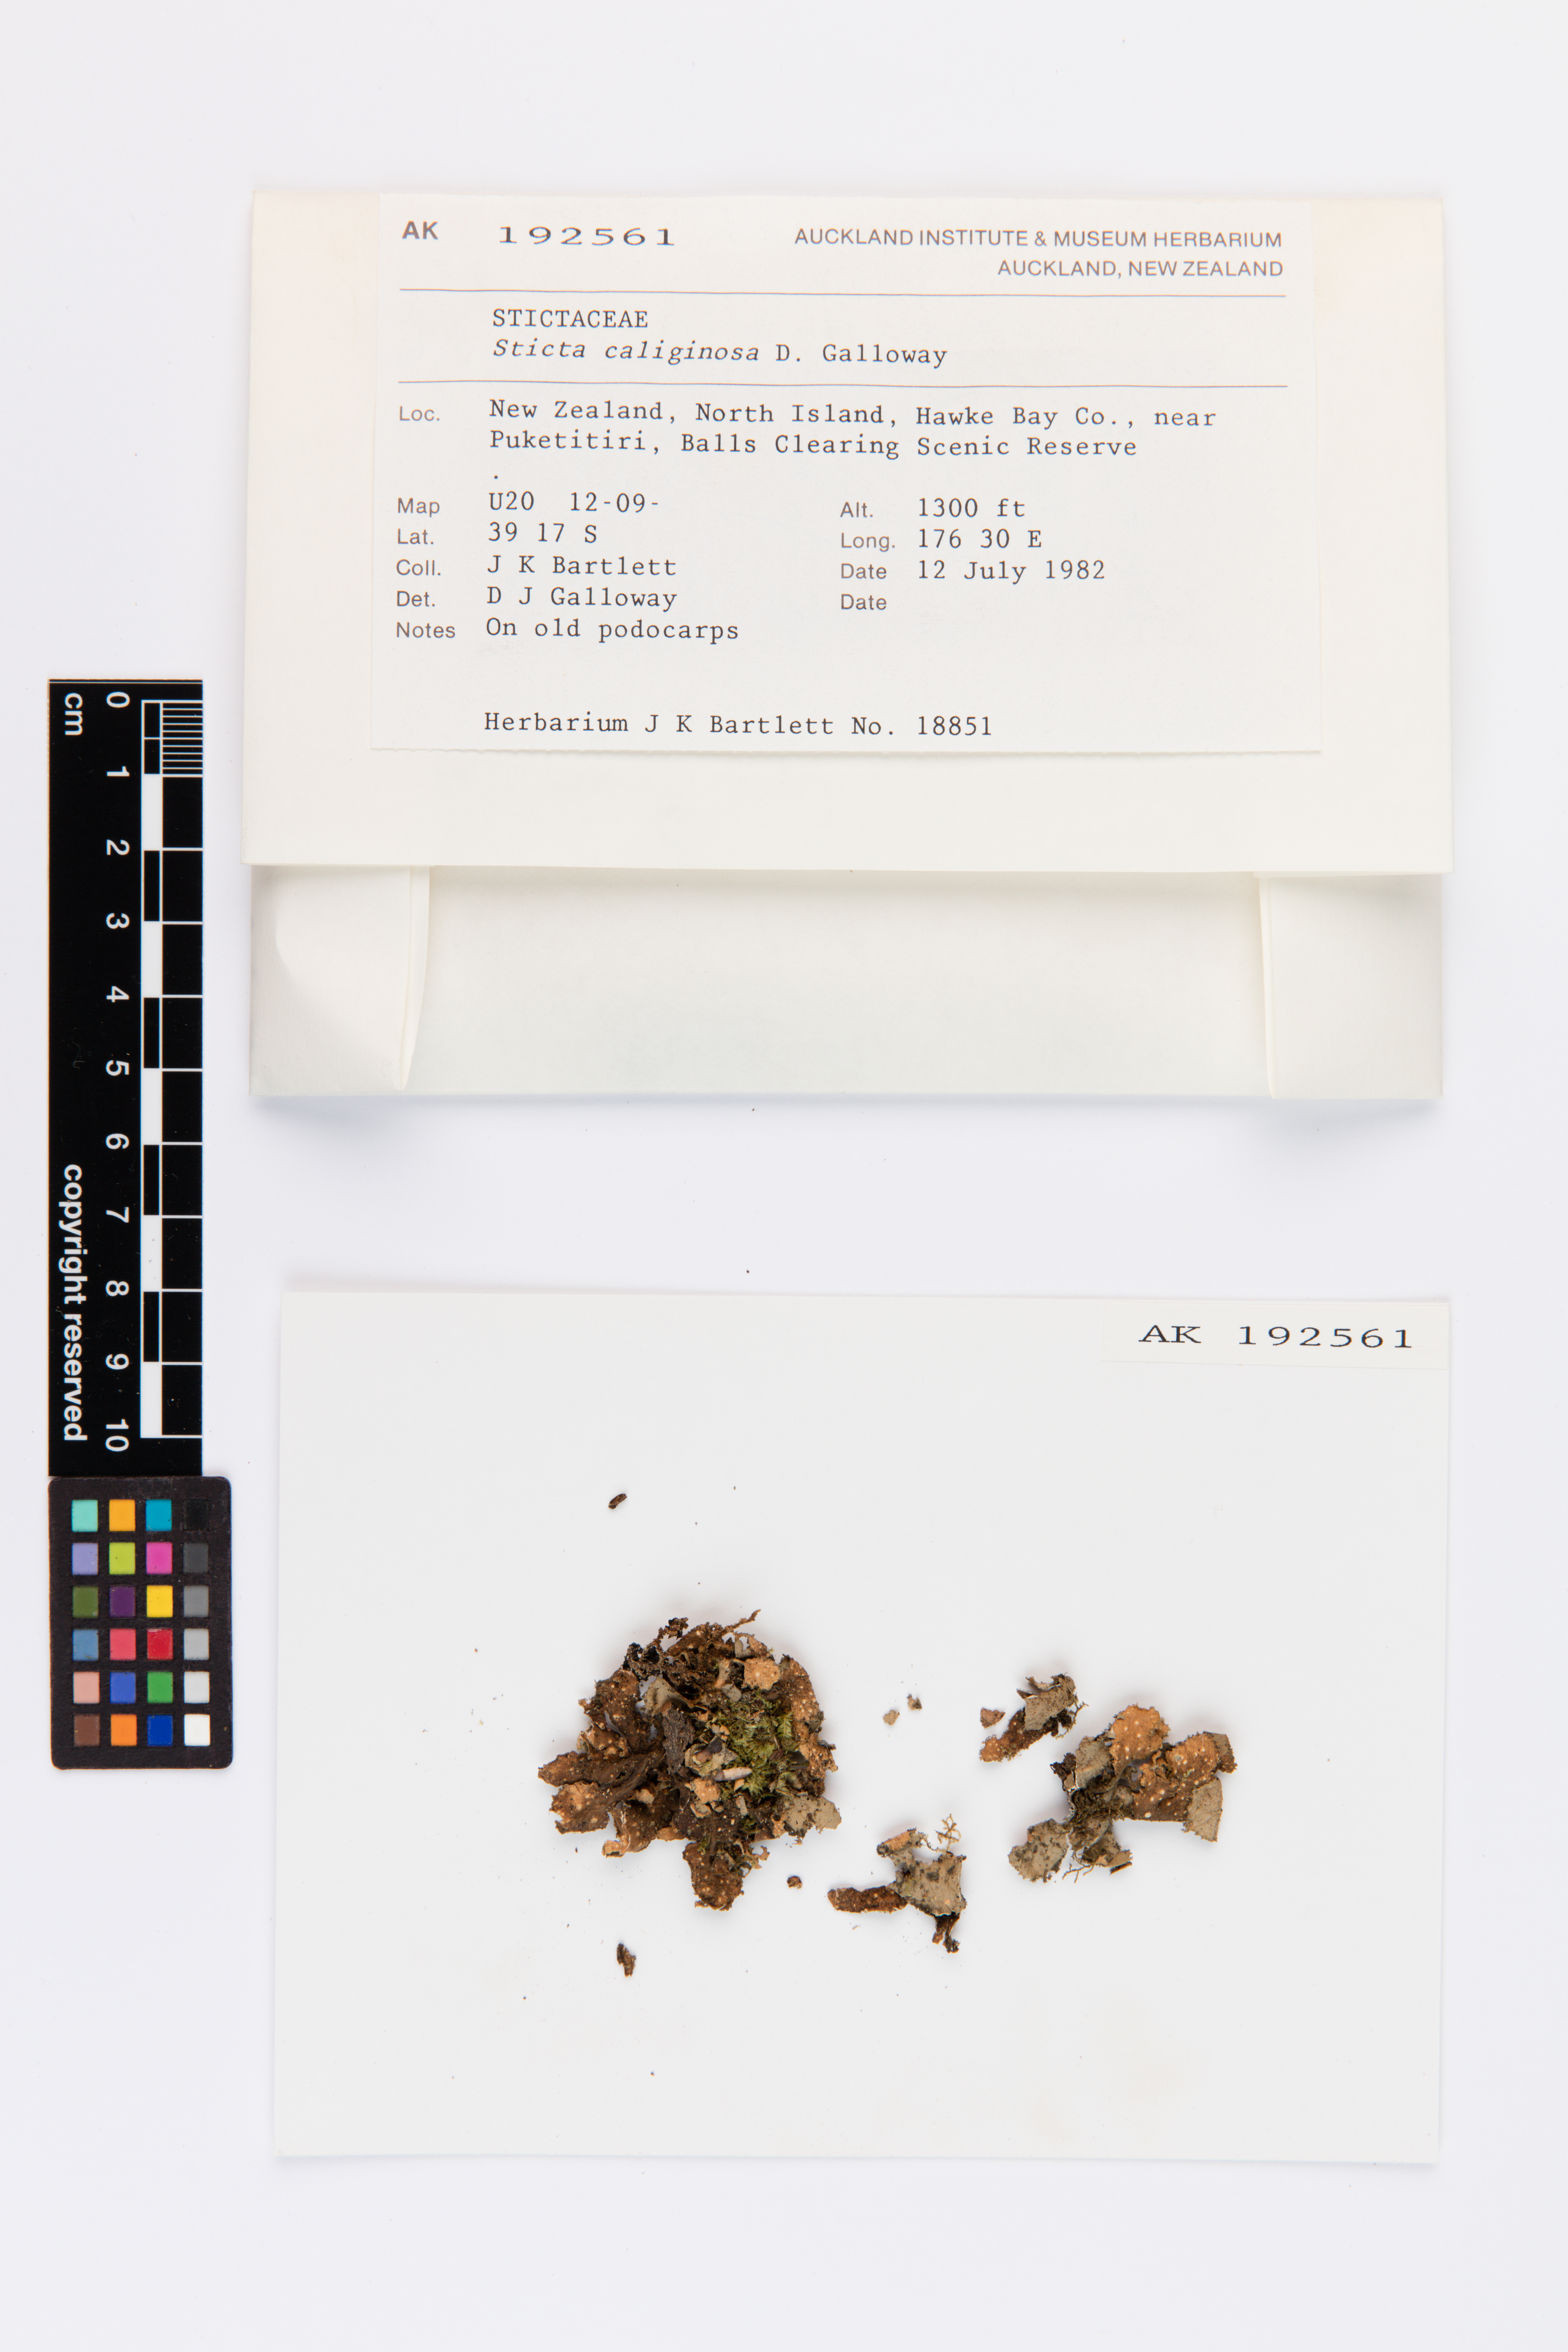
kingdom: Fungi
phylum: Ascomycota
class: Lecanoromycetes
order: Peltigerales
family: Lobariaceae
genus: Sticta
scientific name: Sticta caliginosa
